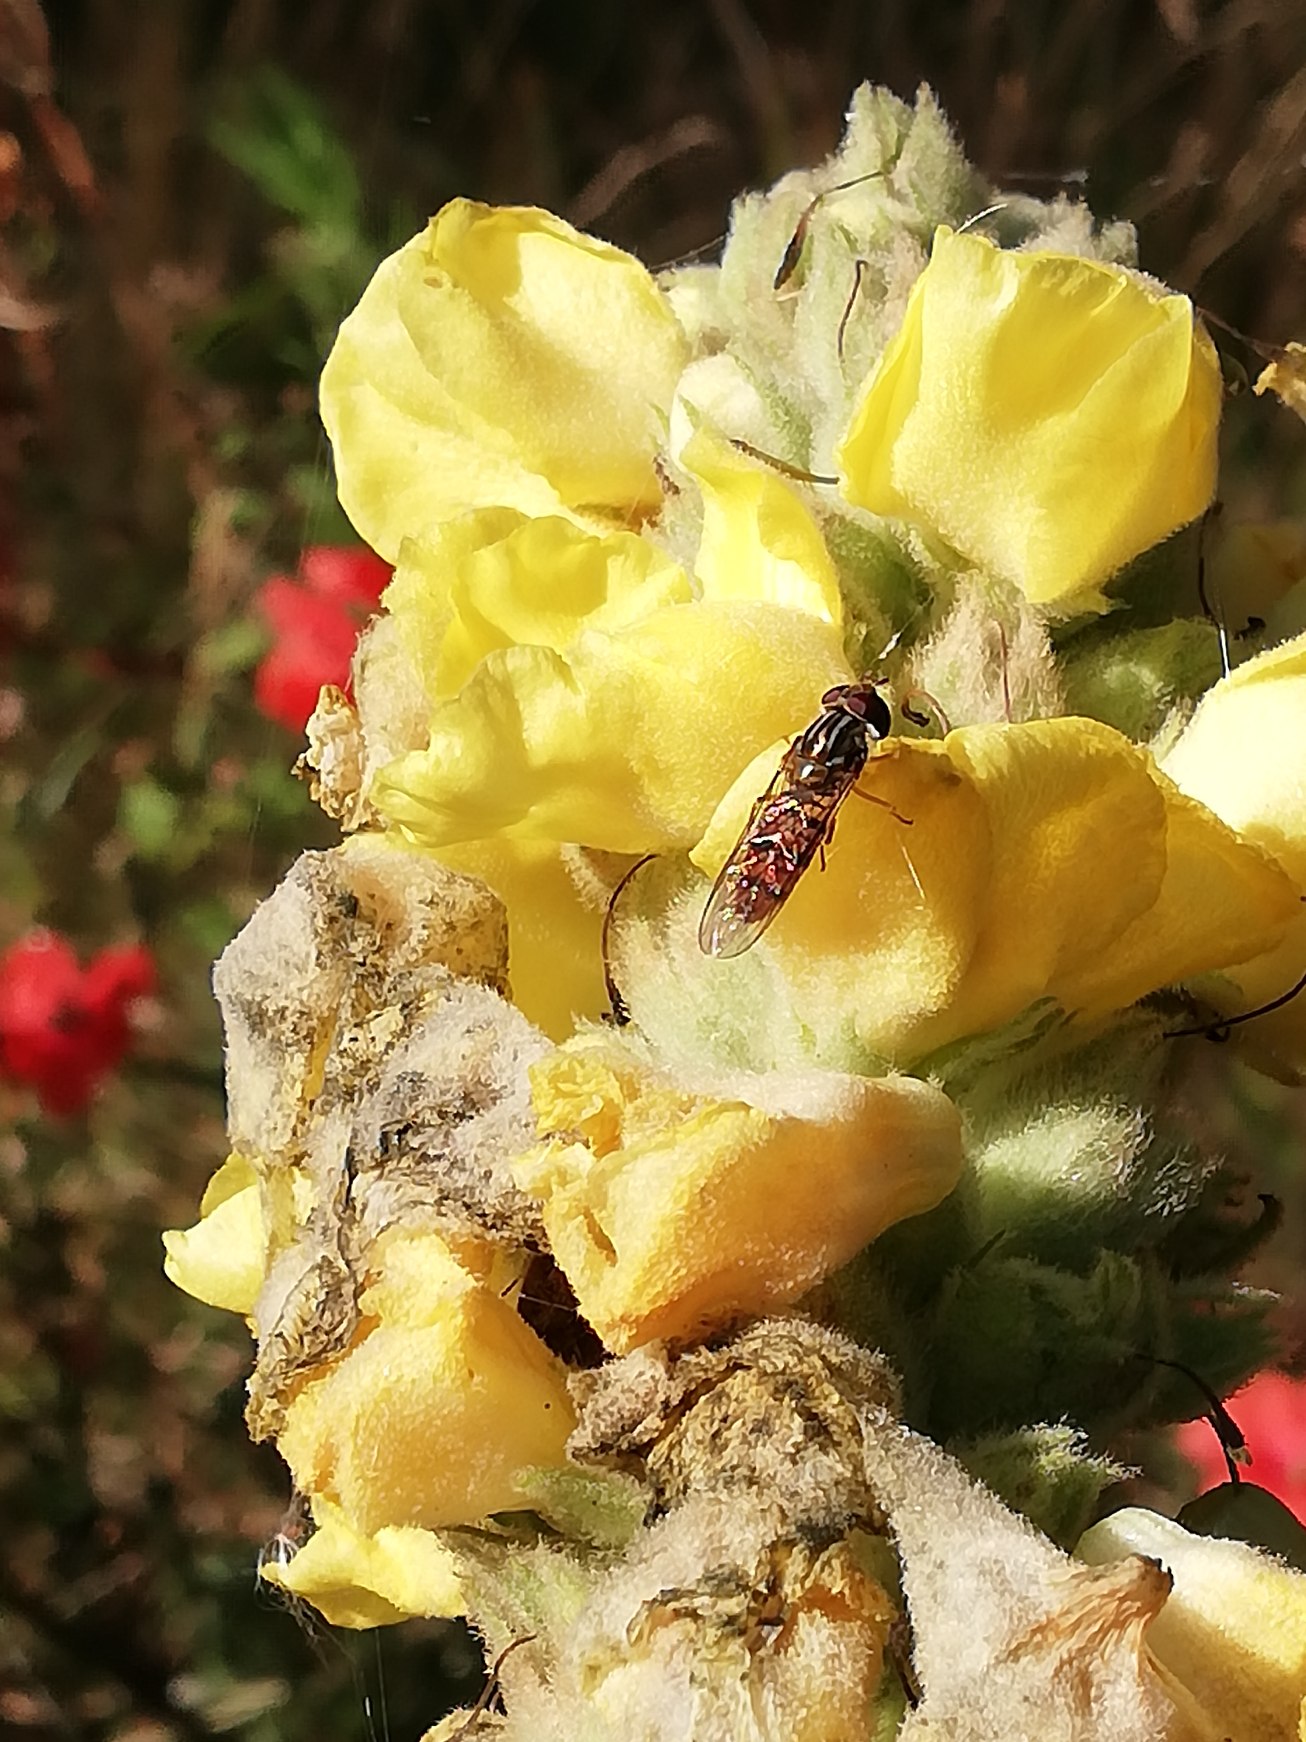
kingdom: Animalia
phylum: Arthropoda
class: Insecta
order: Diptera
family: Syrphidae
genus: Episyrphus
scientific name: Episyrphus balteatus
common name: Dobbeltbåndet svirreflue
